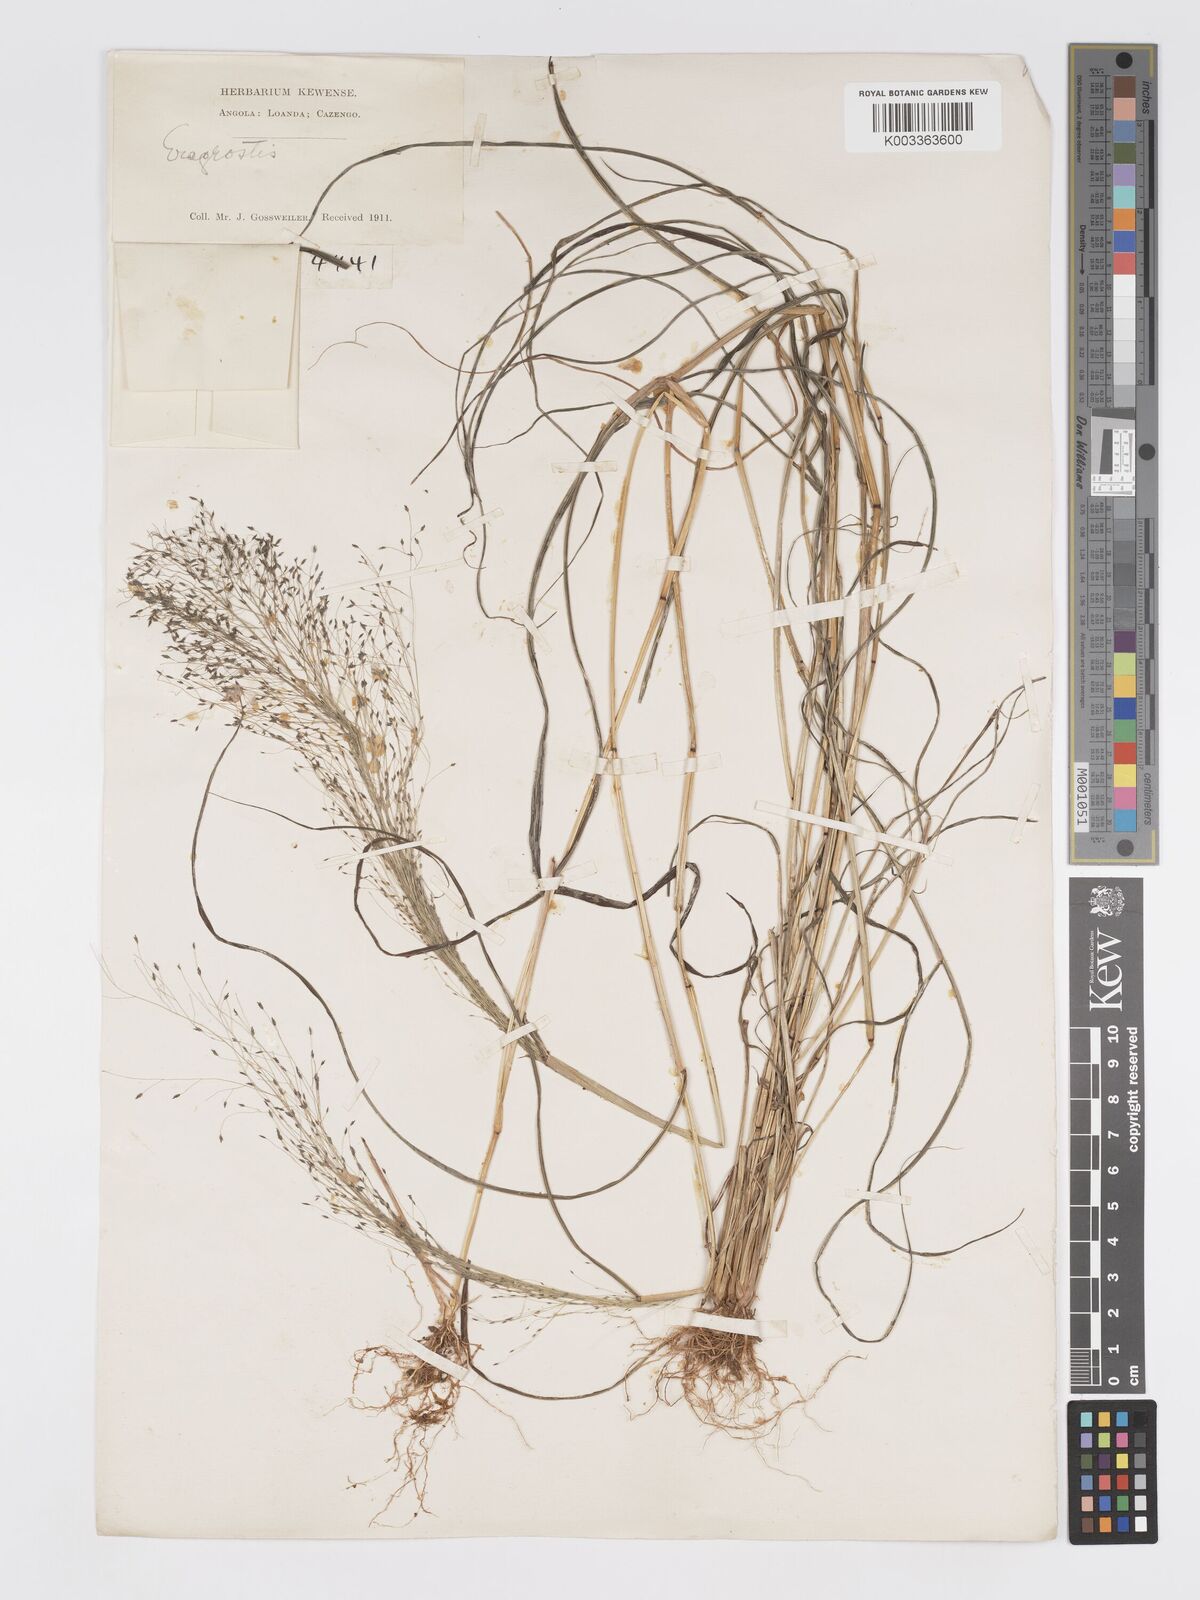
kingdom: Plantae
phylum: Tracheophyta
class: Liliopsida
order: Poales
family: Poaceae
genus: Eragrostis
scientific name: Eragrostis macilenta
